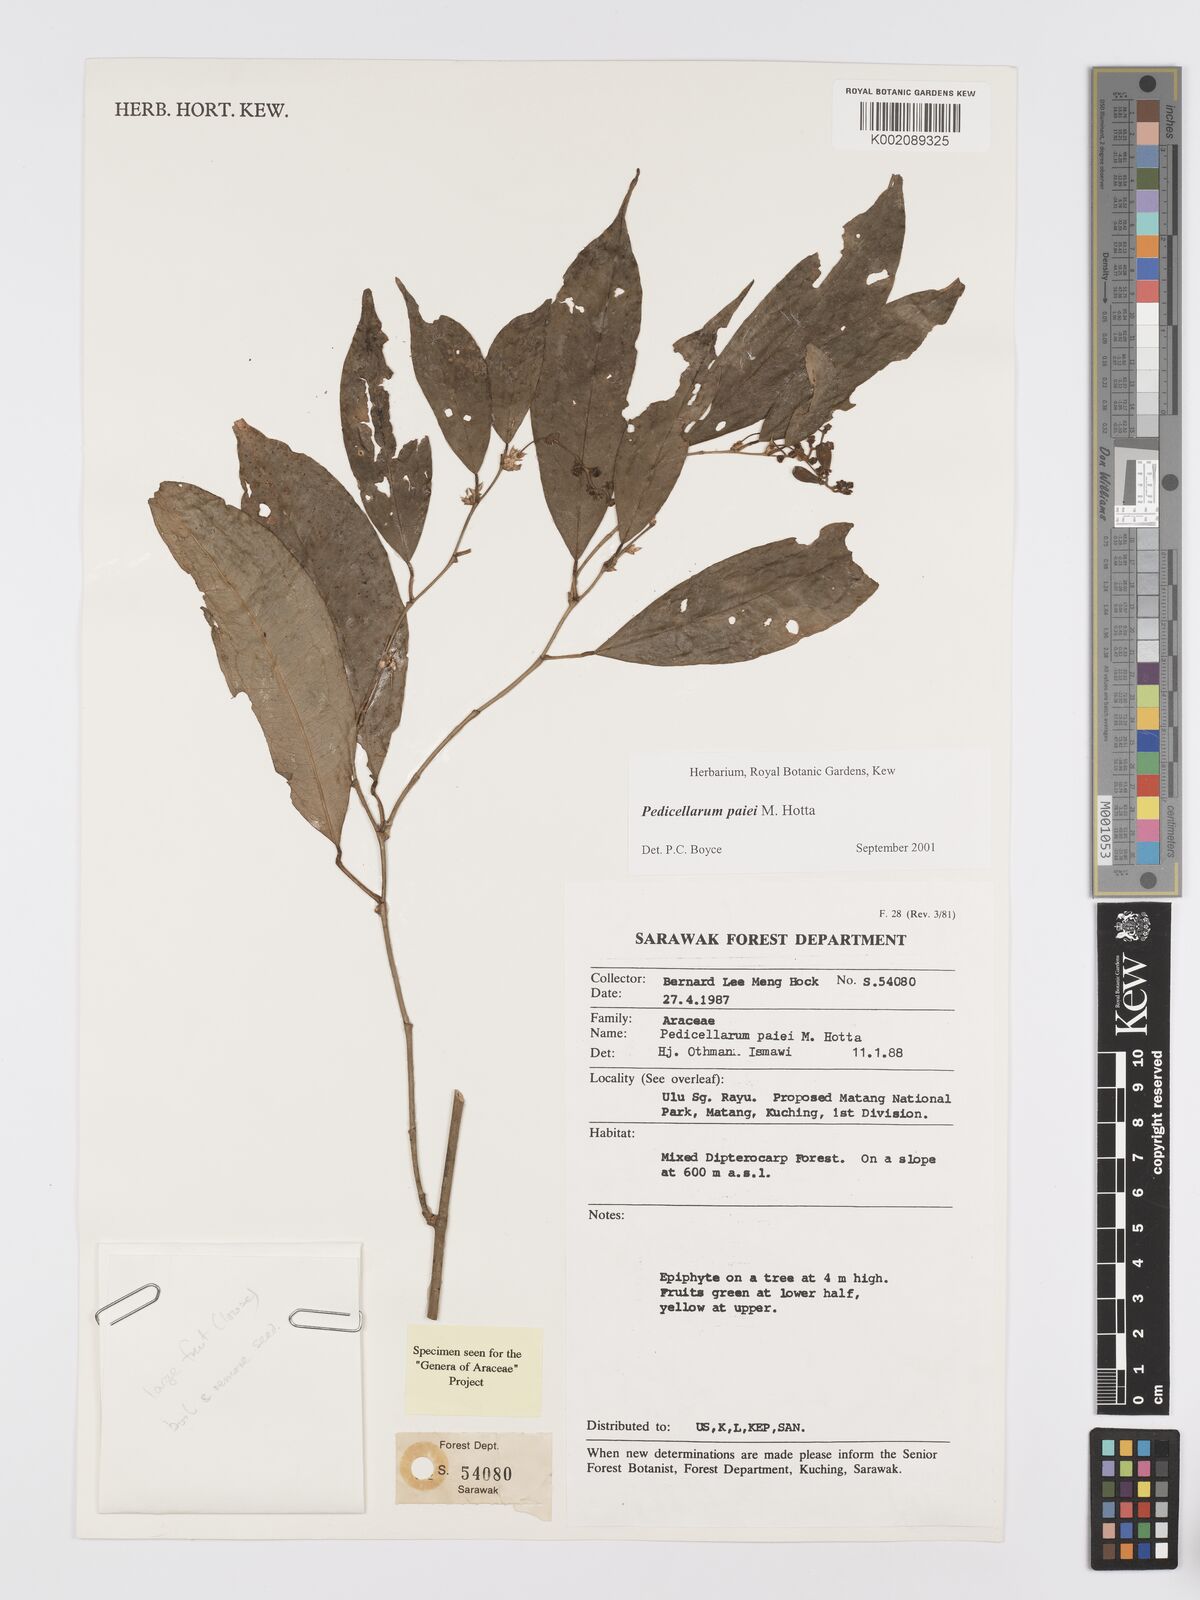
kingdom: Plantae
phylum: Tracheophyta
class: Liliopsida
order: Alismatales
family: Araceae
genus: Pothos
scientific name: Pothos paiei
